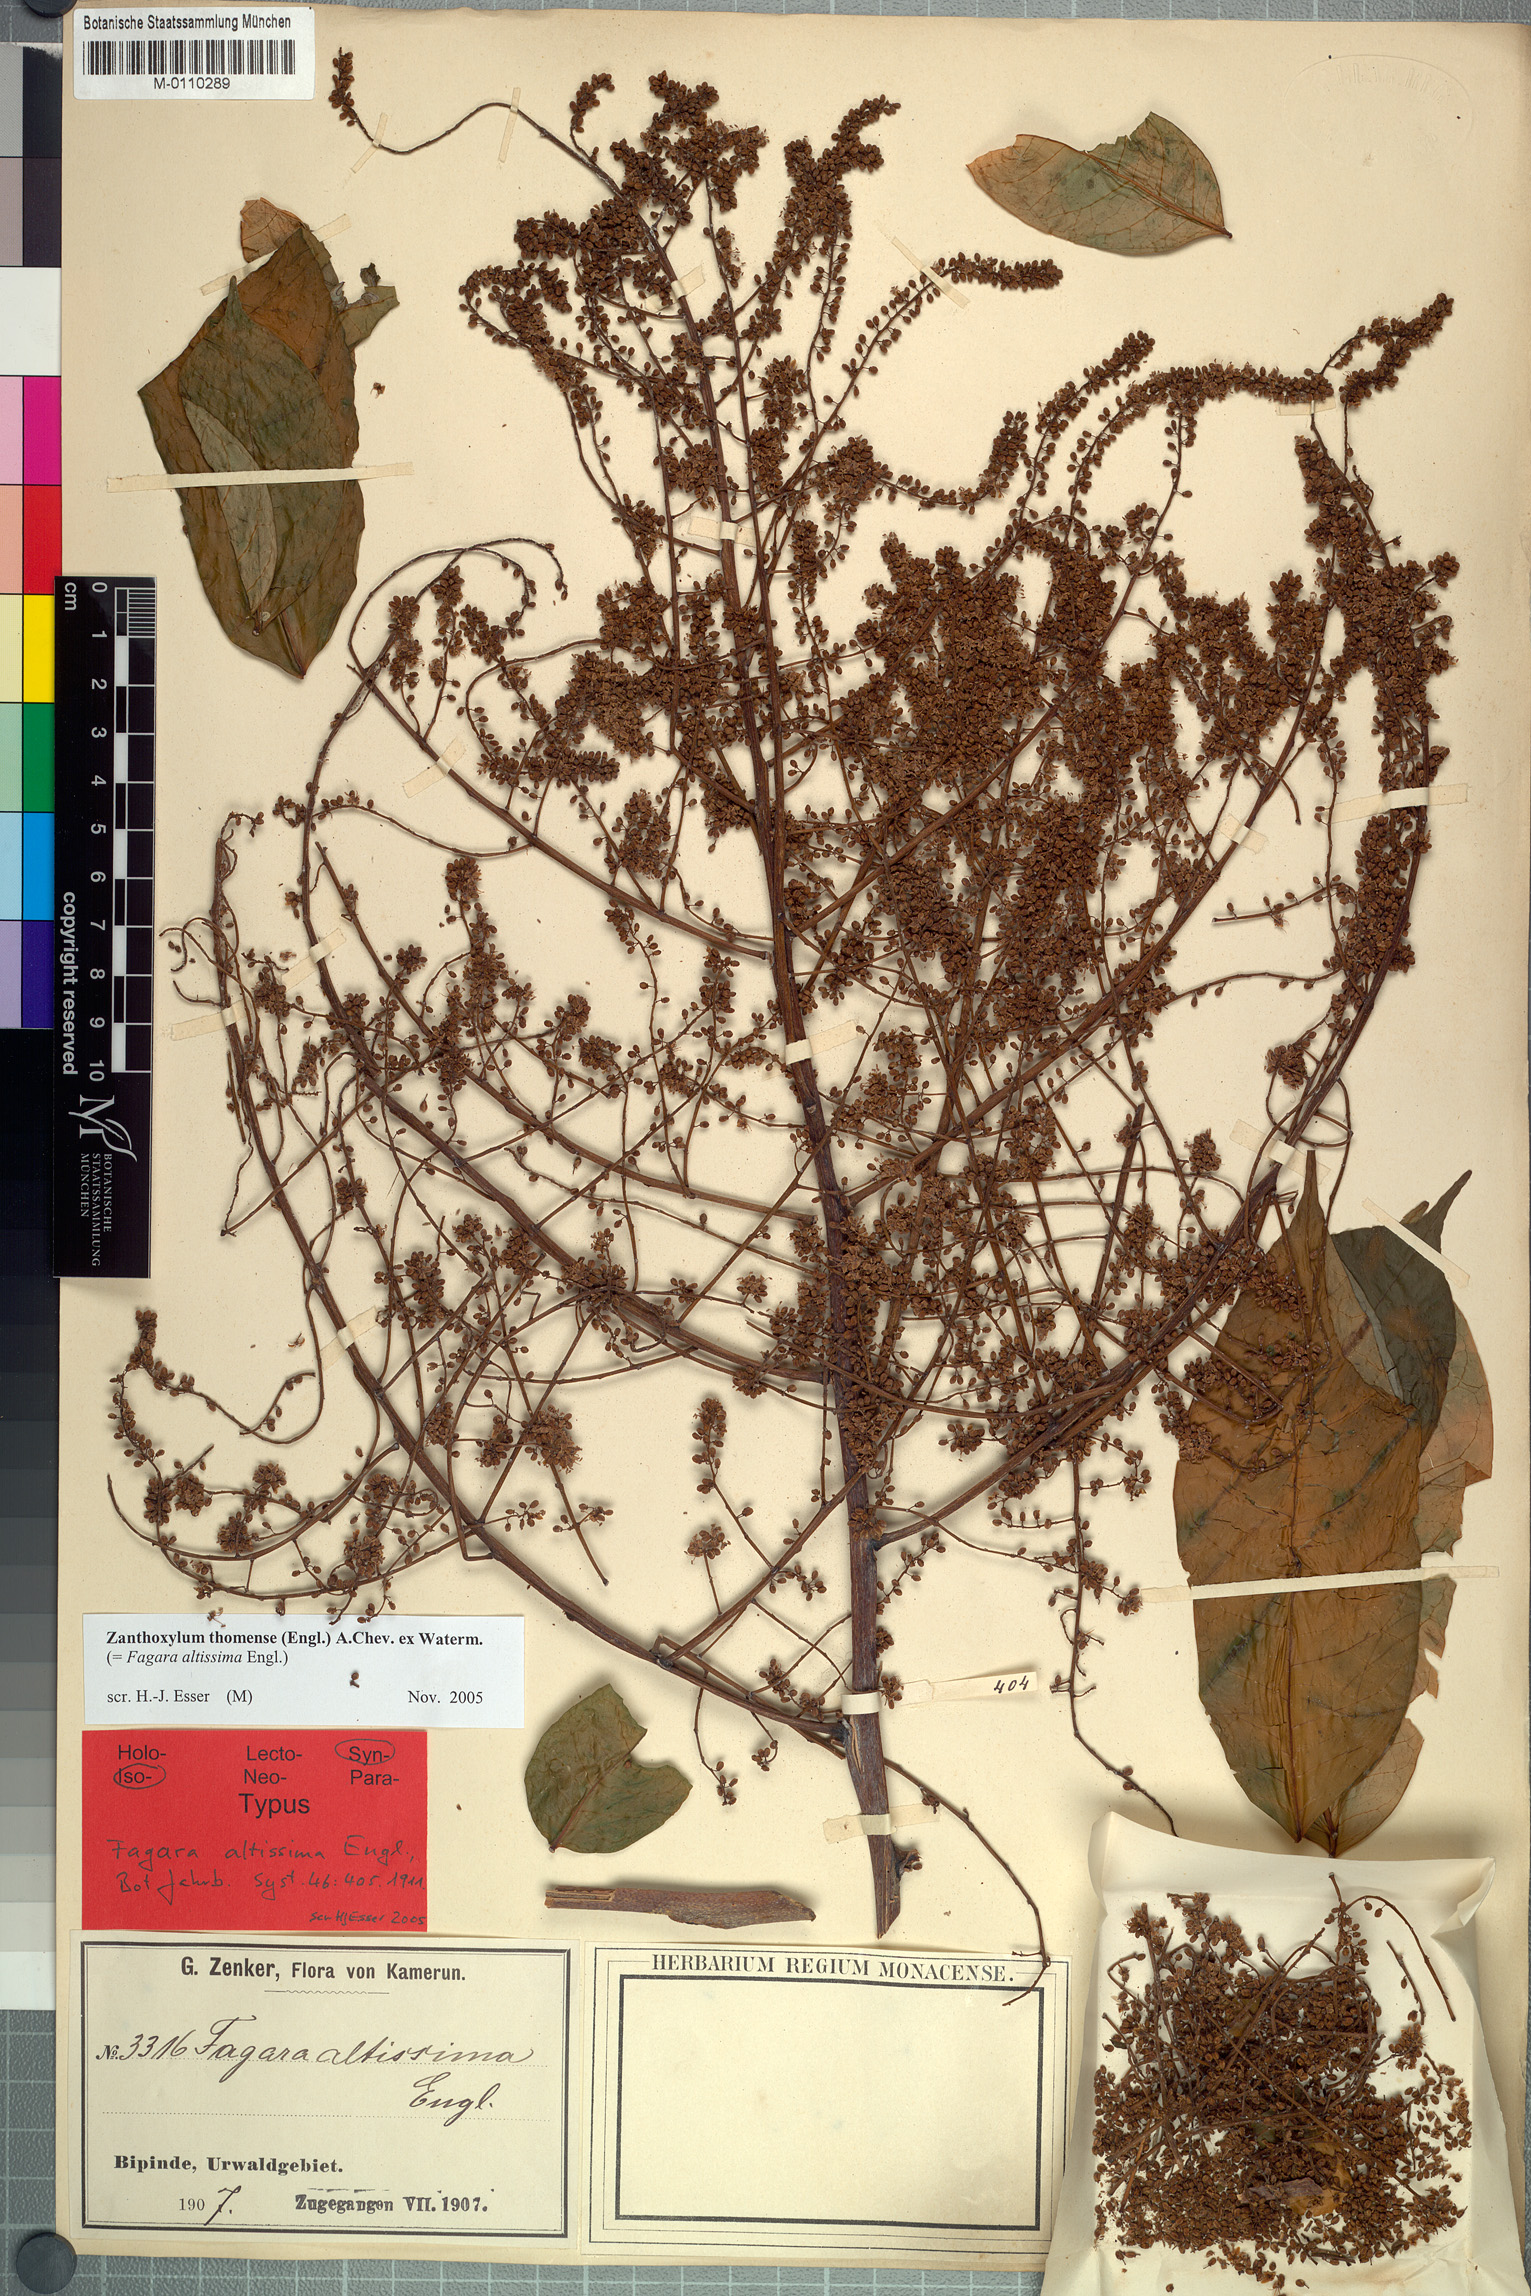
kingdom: Plantae
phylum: Tracheophyta
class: Magnoliopsida
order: Sapindales
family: Rutaceae
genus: Zanthoxylum
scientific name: Zanthoxylum thomense
